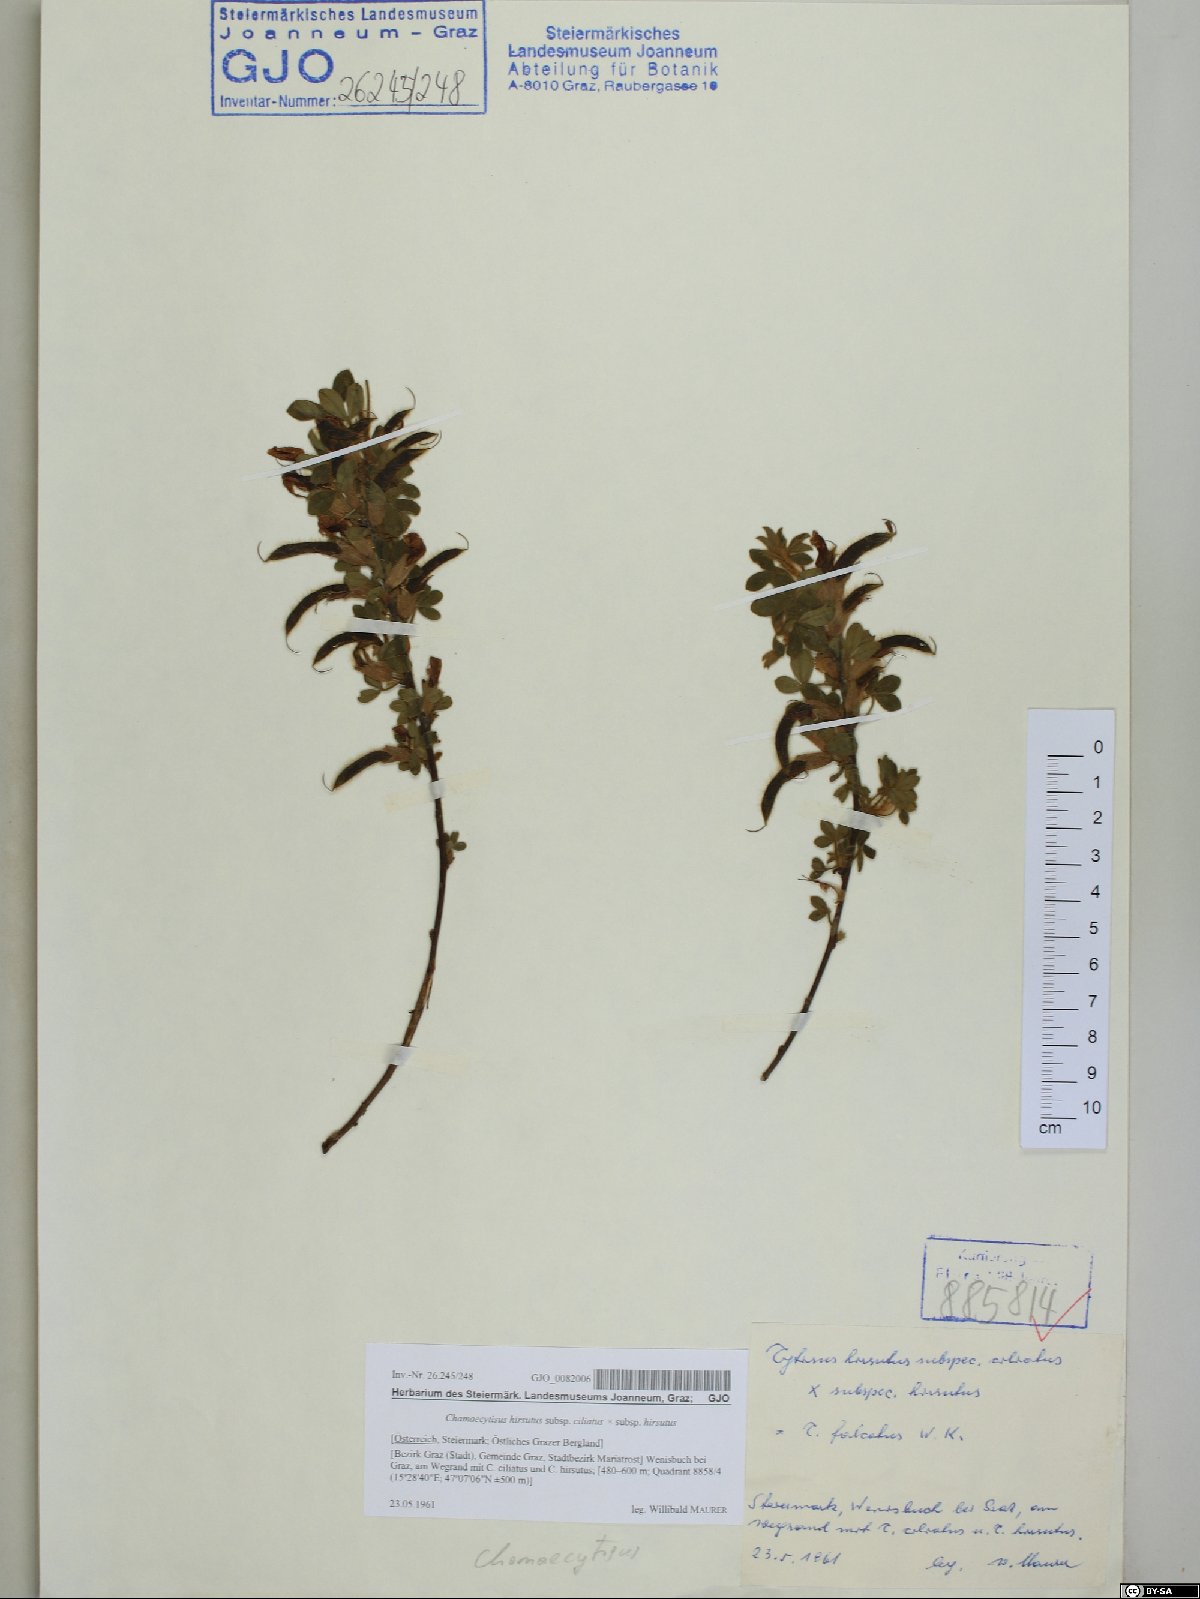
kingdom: Plantae
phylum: Tracheophyta
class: Magnoliopsida
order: Fabales
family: Fabaceae
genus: Chamaecytisus
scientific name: Chamaecytisus hirsutus
